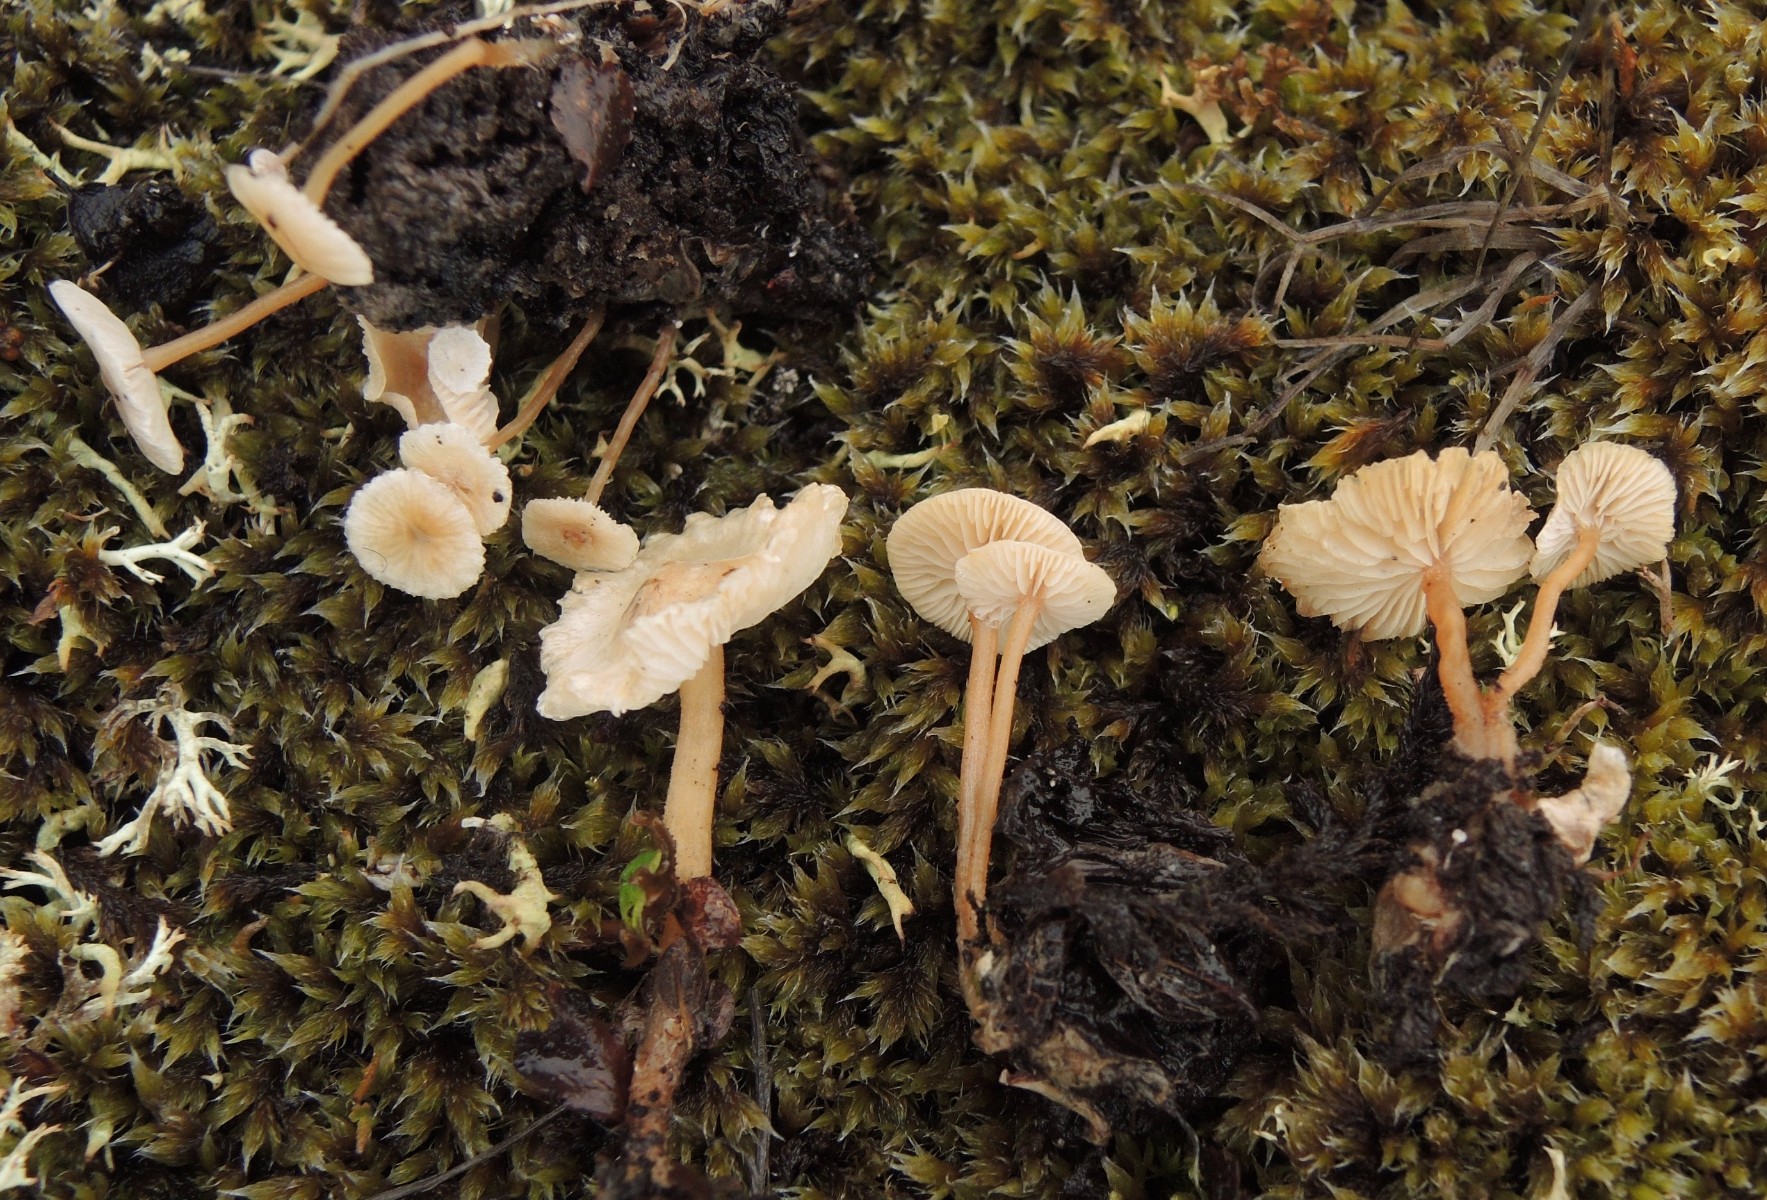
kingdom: Fungi
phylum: Basidiomycota
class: Agaricomycetes
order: Agaricales
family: Tricholomataceae
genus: Collybia
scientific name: Collybia cirrhata
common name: silke-lighat
